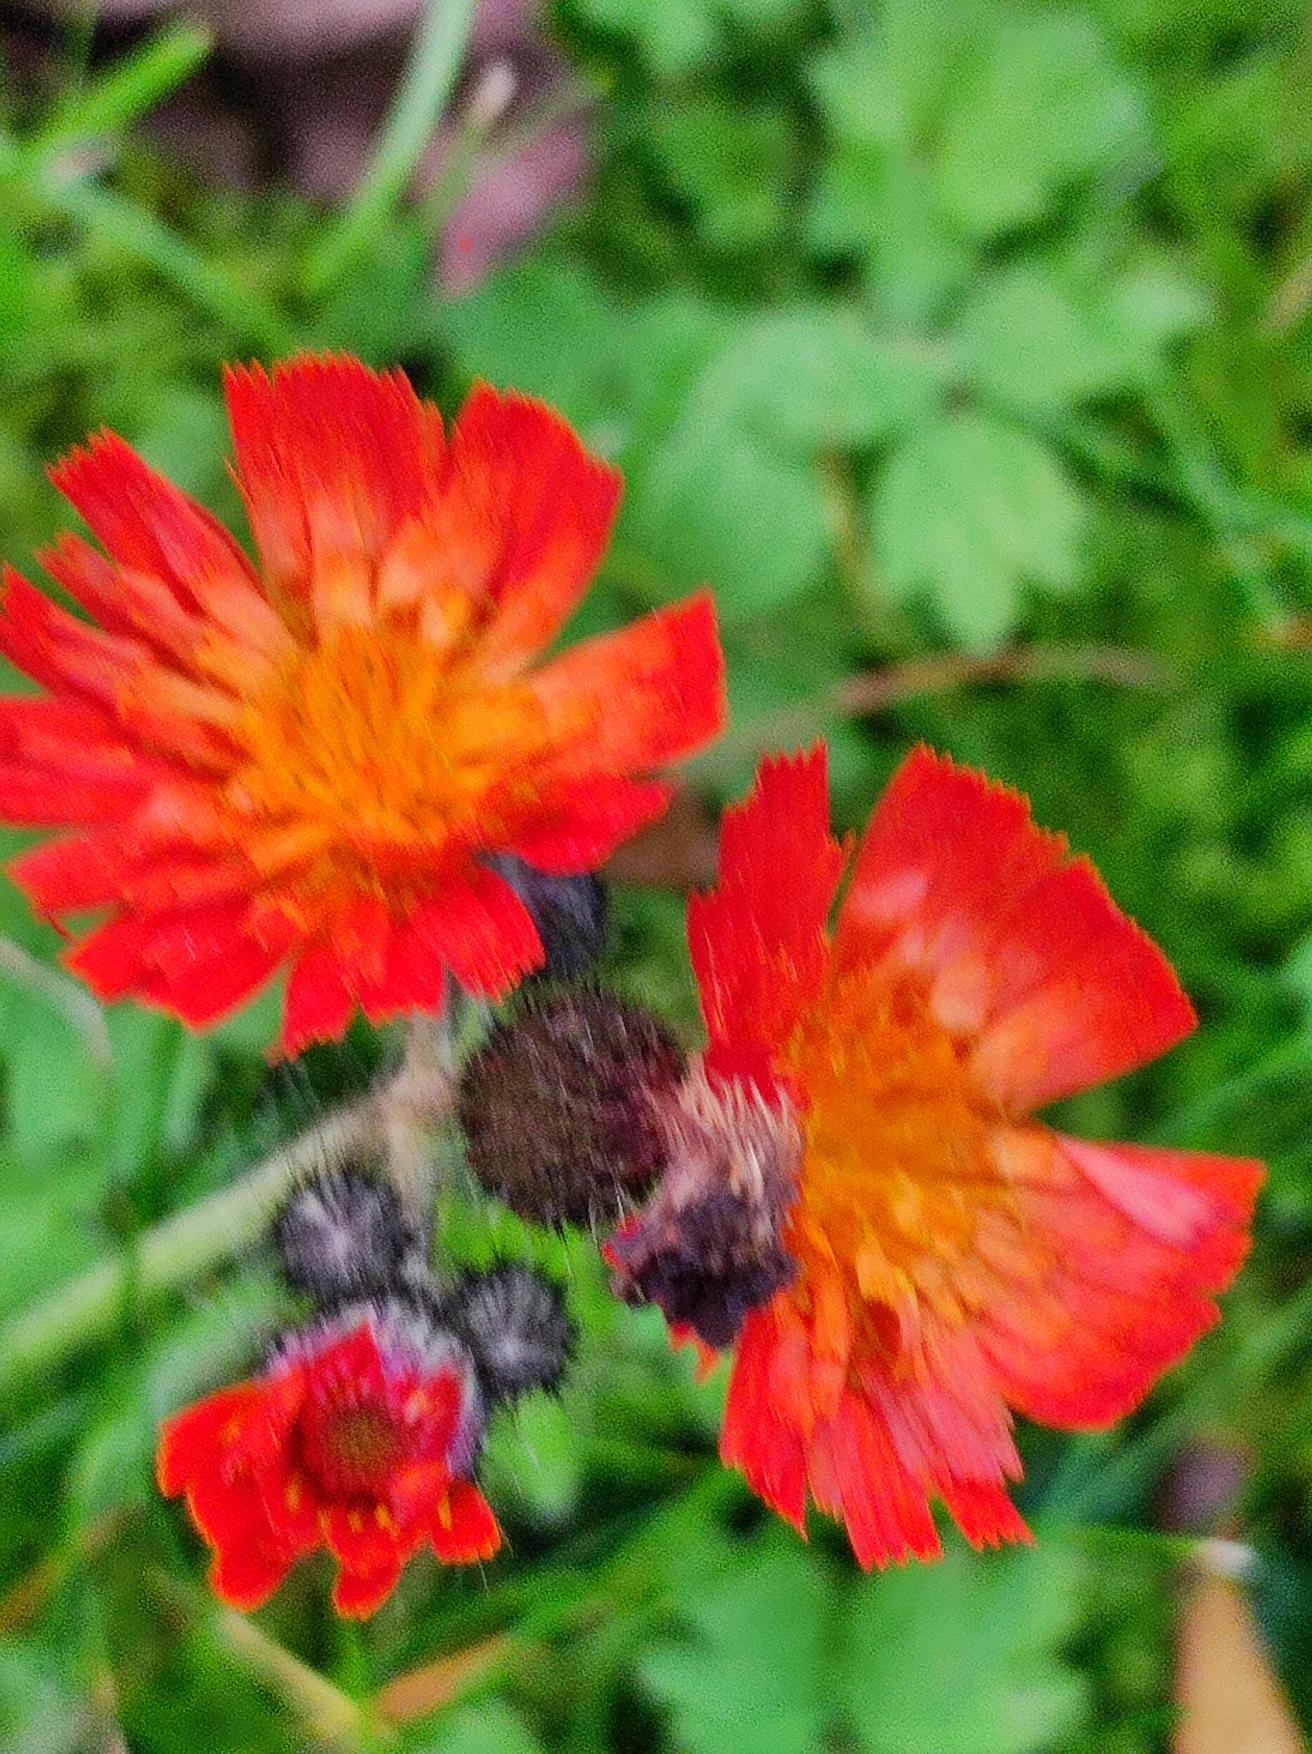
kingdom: Plantae
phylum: Tracheophyta
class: Magnoliopsida
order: Asterales
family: Asteraceae
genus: Pilosella
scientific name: Pilosella aurantiaca
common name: Pomerans-høgeurt
